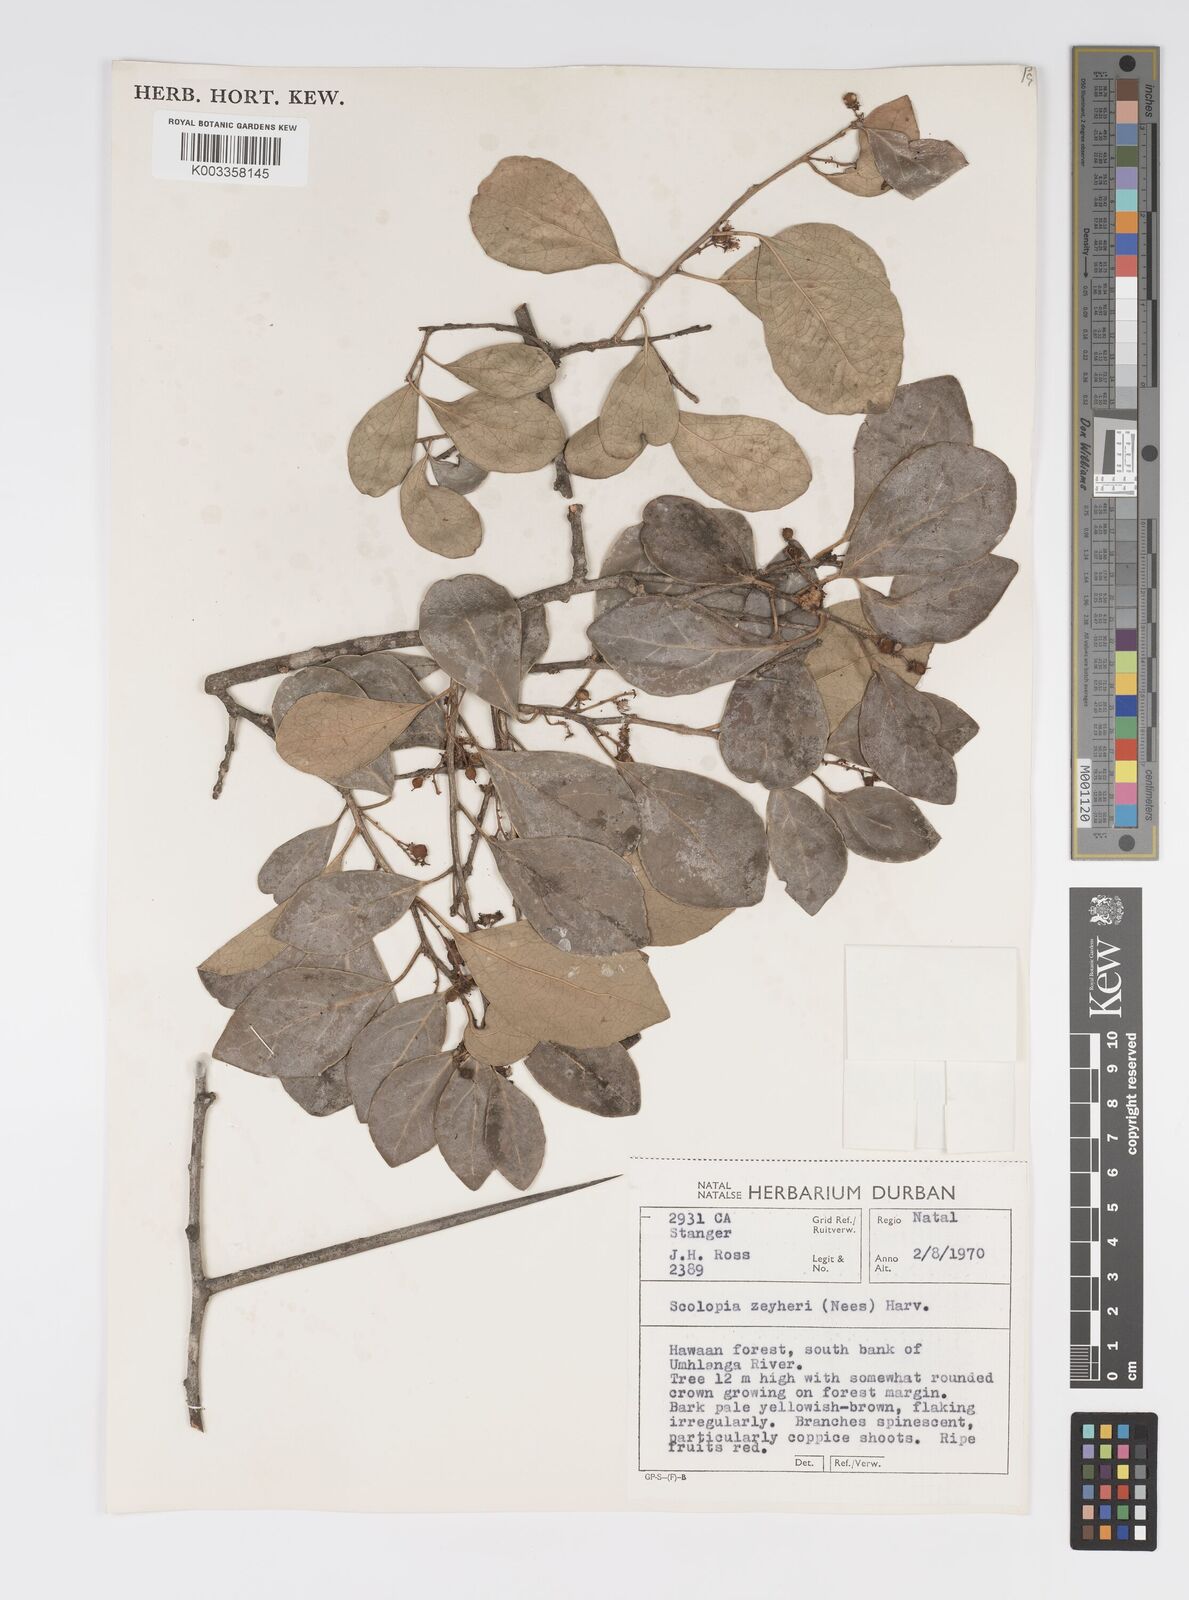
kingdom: Plantae
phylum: Tracheophyta
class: Magnoliopsida
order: Malpighiales
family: Salicaceae
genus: Scolopia
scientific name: Scolopia zeyheri
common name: Thorn pear
